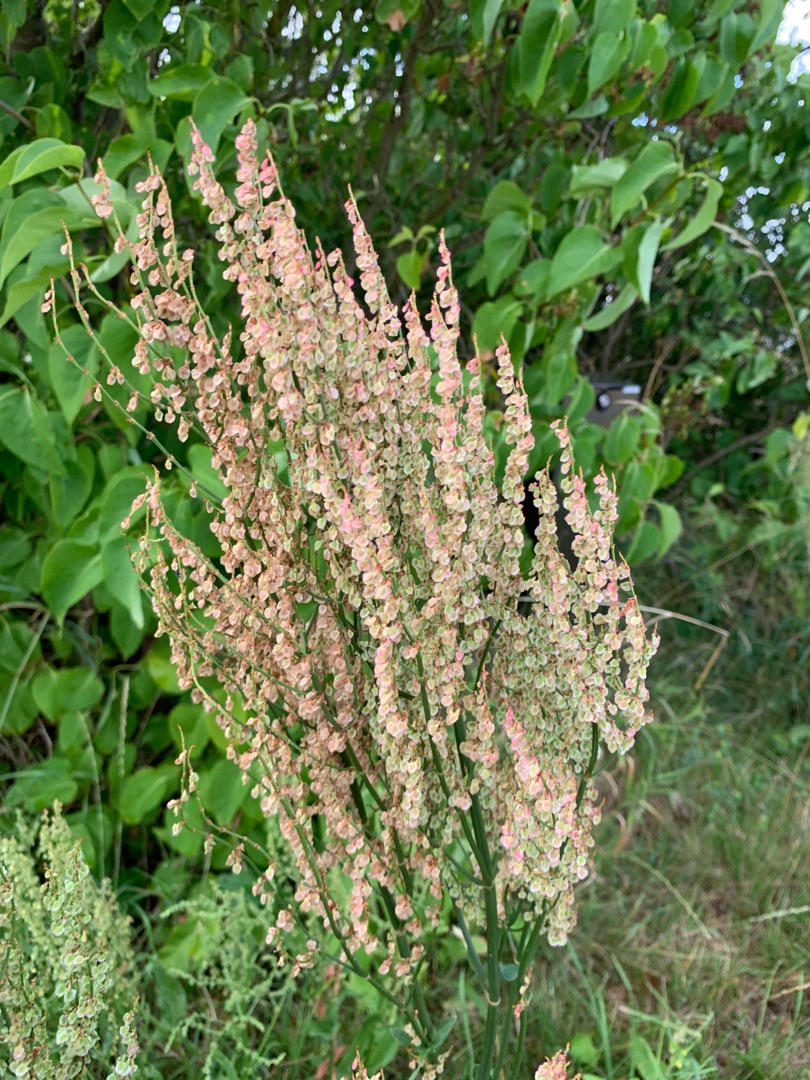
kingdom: Plantae
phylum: Tracheophyta
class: Magnoliopsida
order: Caryophyllales
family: Polygonaceae
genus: Rumex
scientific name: Rumex thyrsiflorus
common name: Dusk-syre
